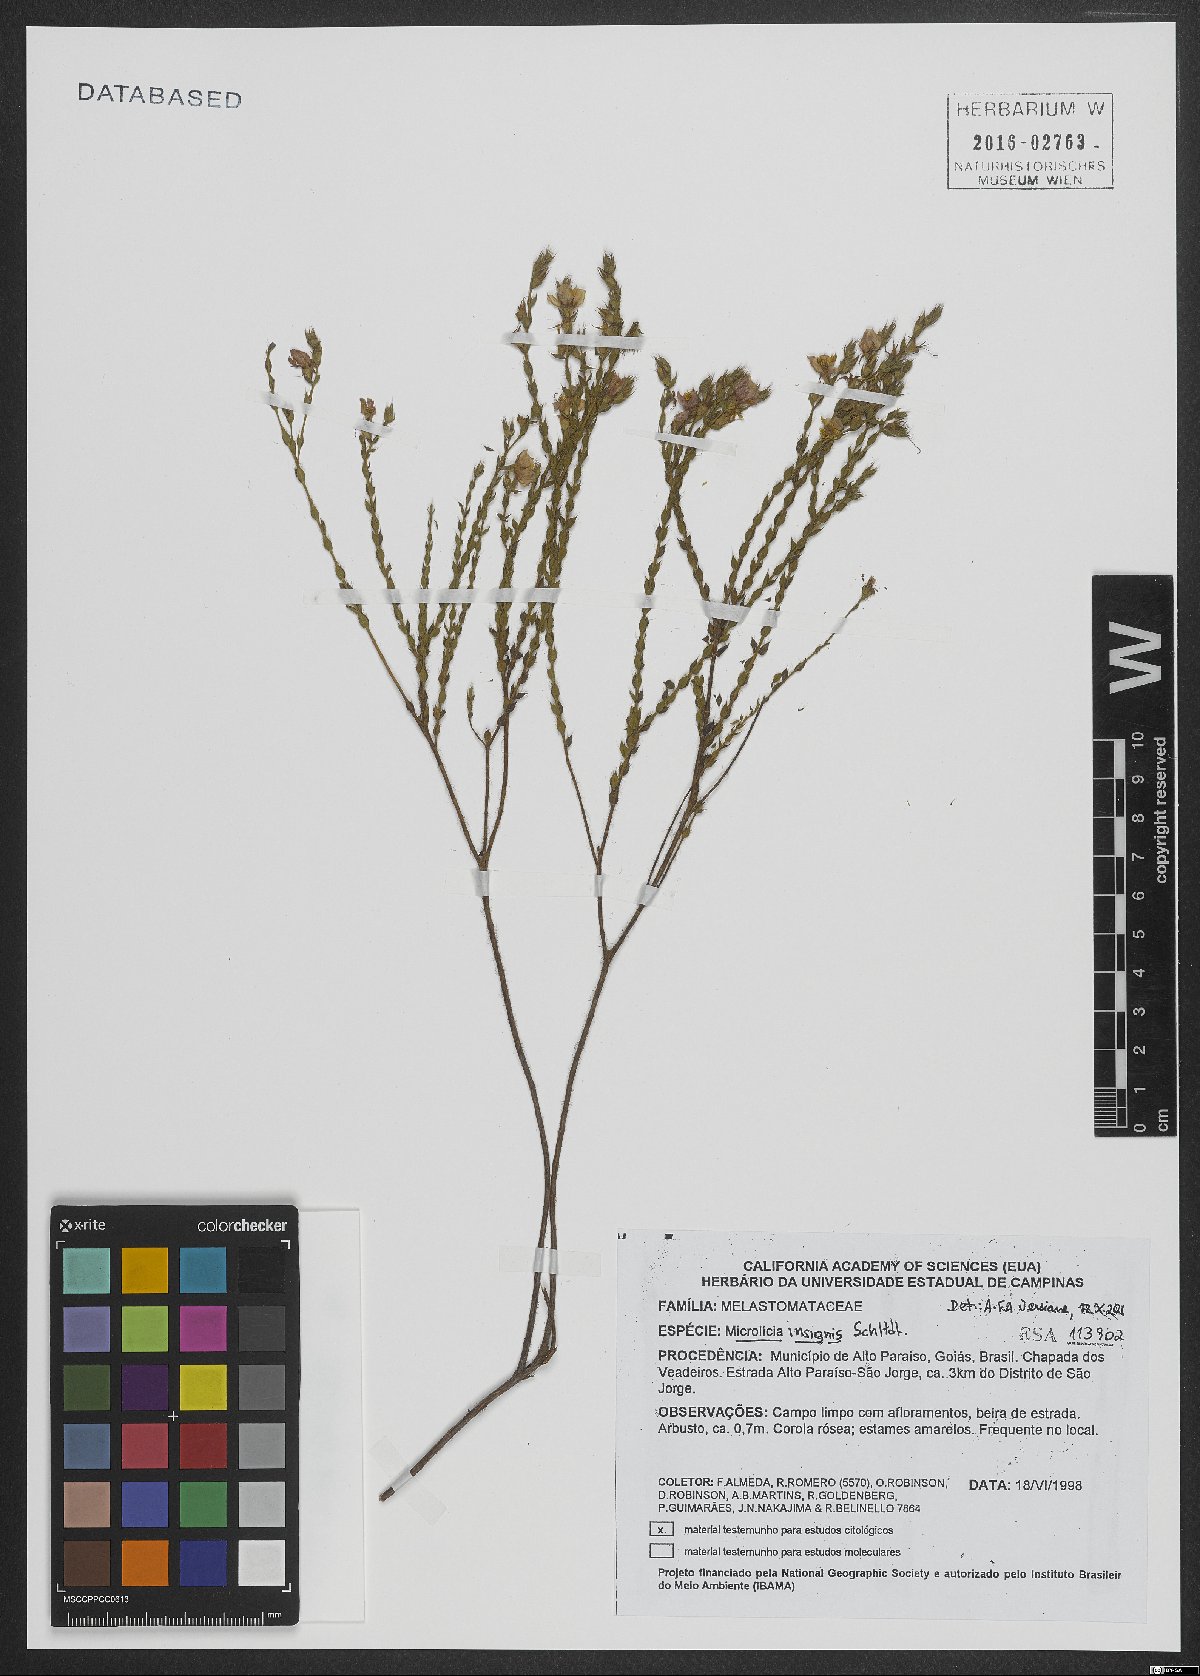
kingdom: Plantae
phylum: Tracheophyta
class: Magnoliopsida
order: Myrtales
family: Melastomataceae
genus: Microlicia
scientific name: Microlicia insignis
